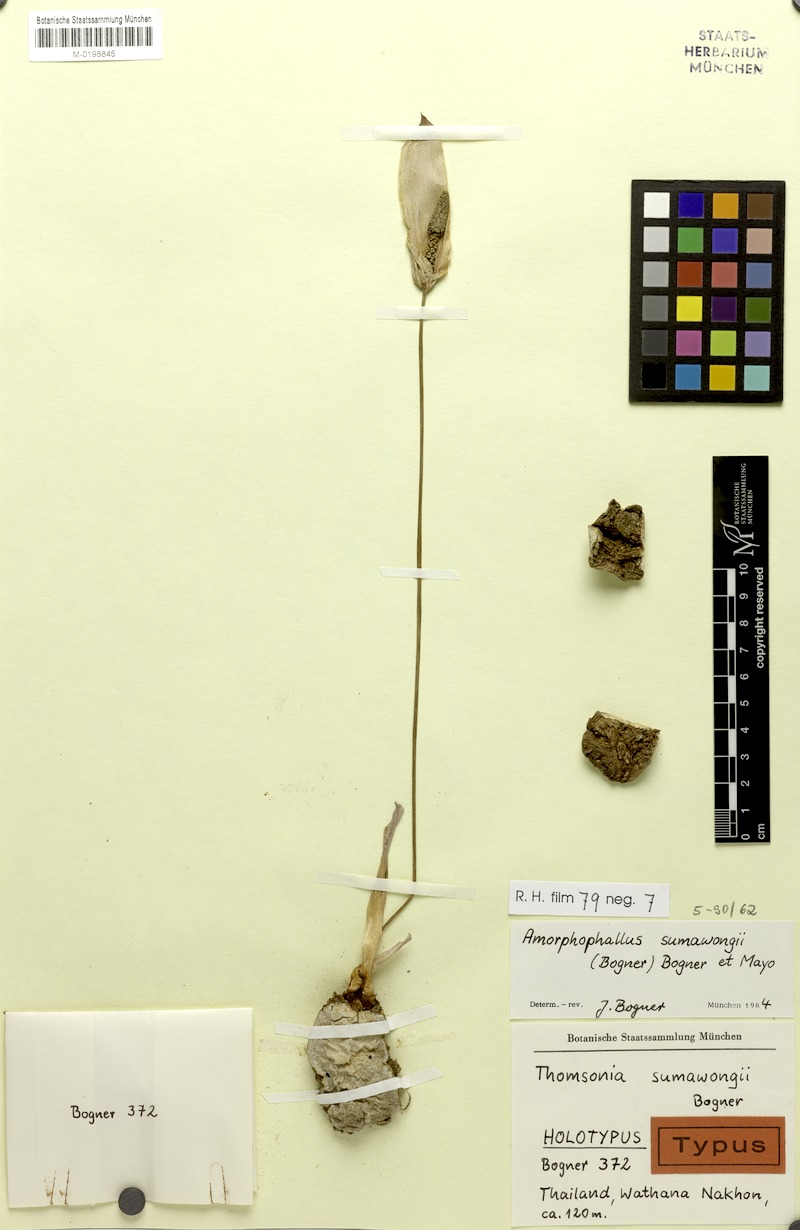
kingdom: Plantae
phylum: Tracheophyta
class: Liliopsida
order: Alismatales
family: Araceae
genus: Amorphophallus
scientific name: Amorphophallus sumawongii
